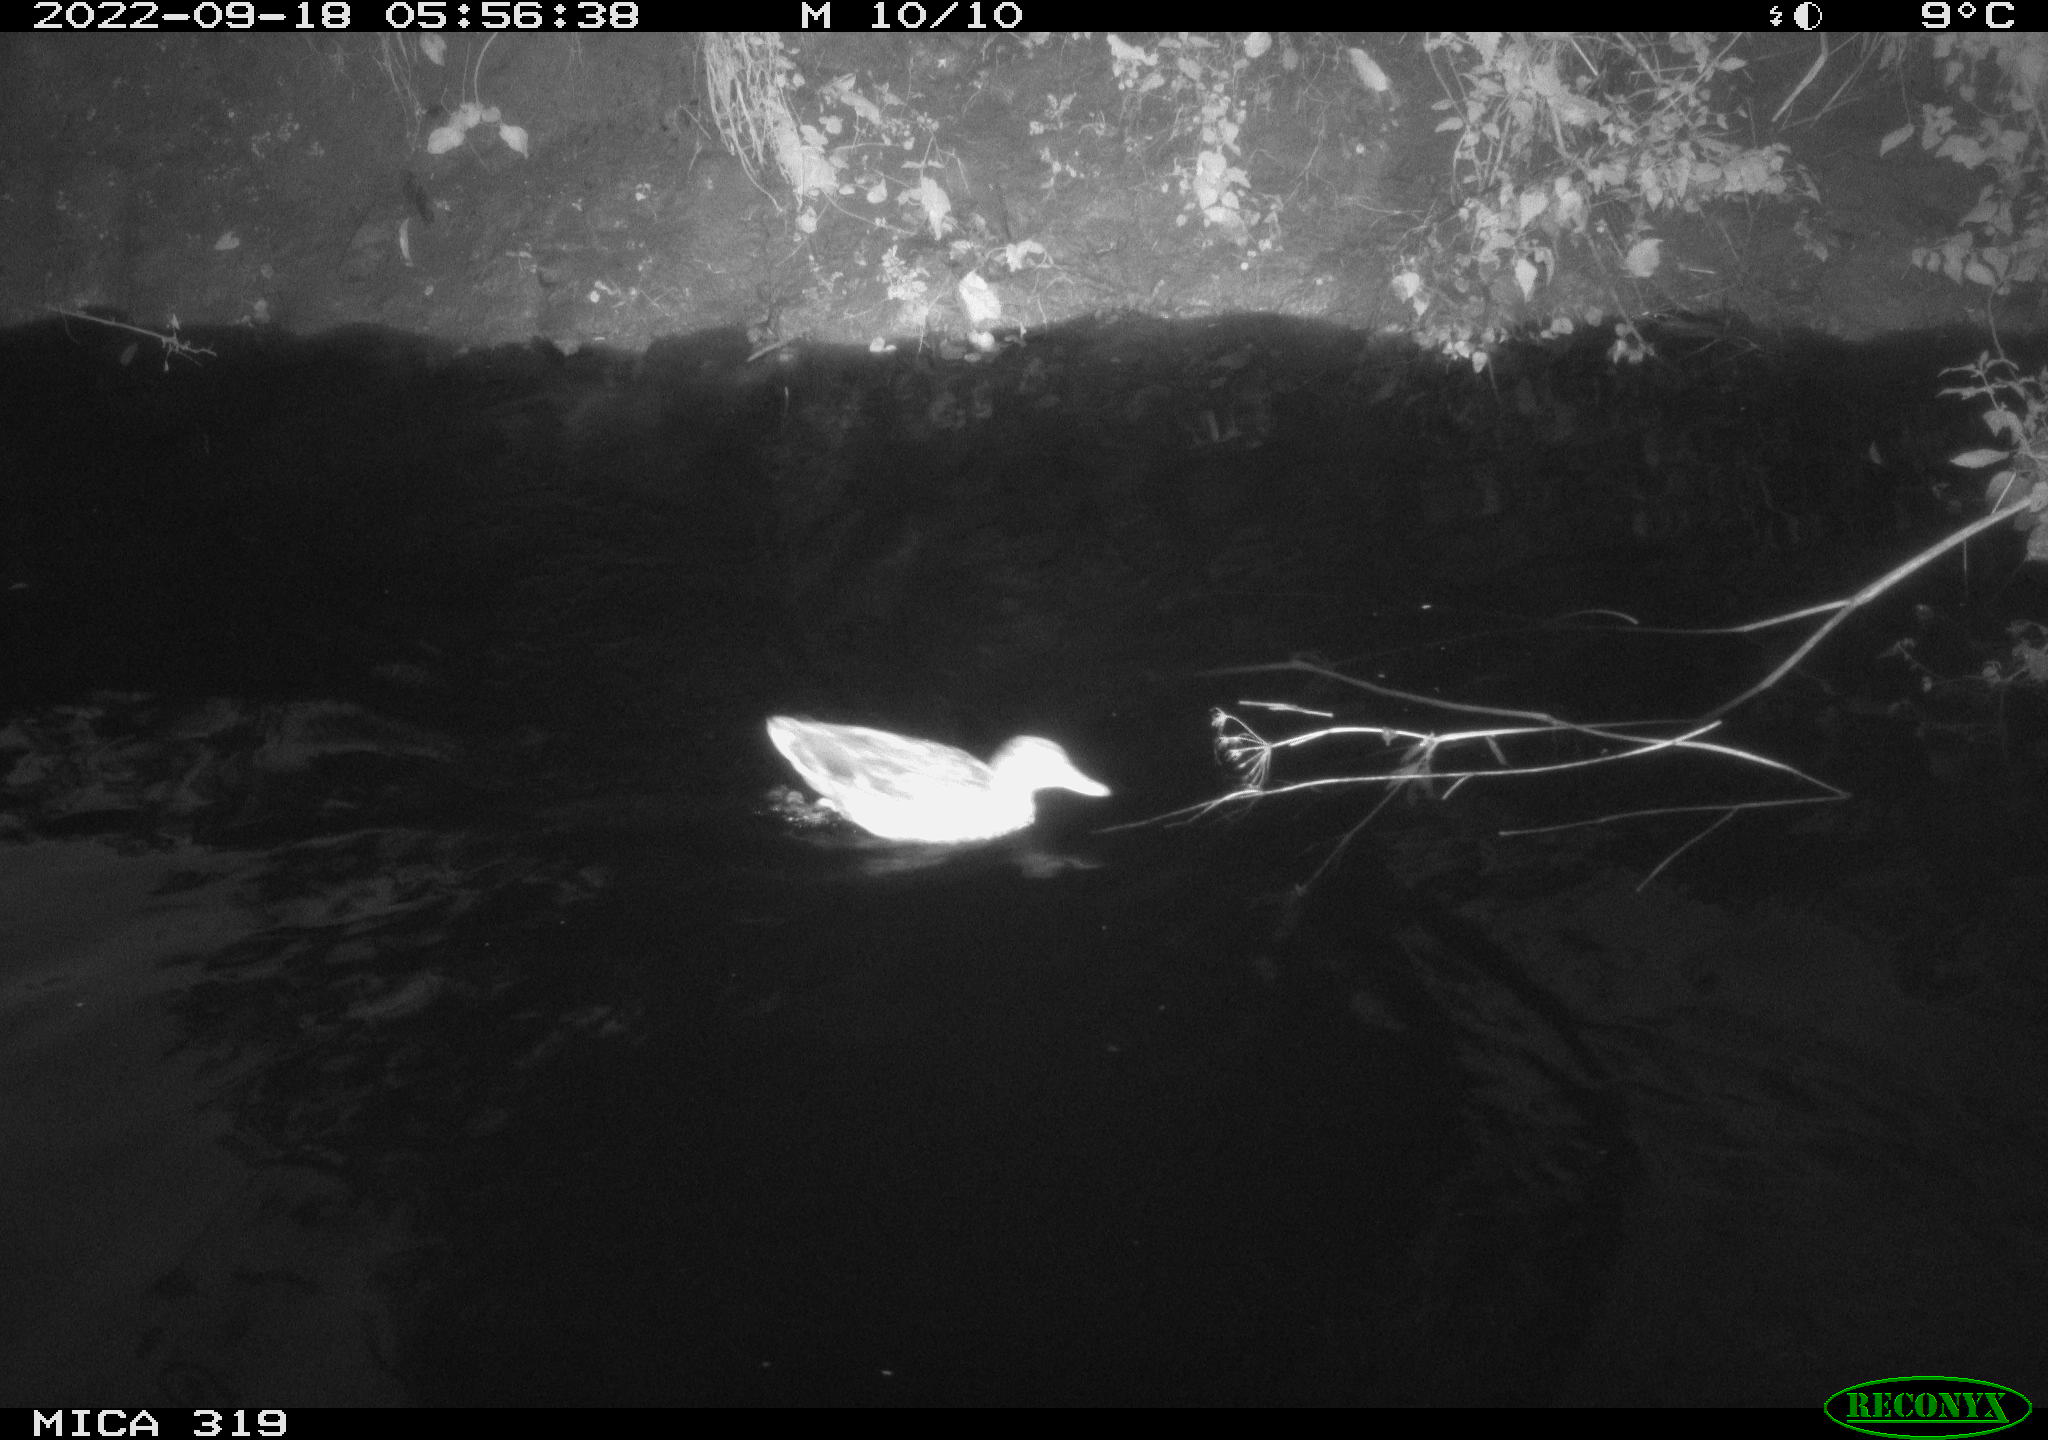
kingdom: Animalia
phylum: Chordata
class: Aves
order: Anseriformes
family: Anatidae
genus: Anas
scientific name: Anas
